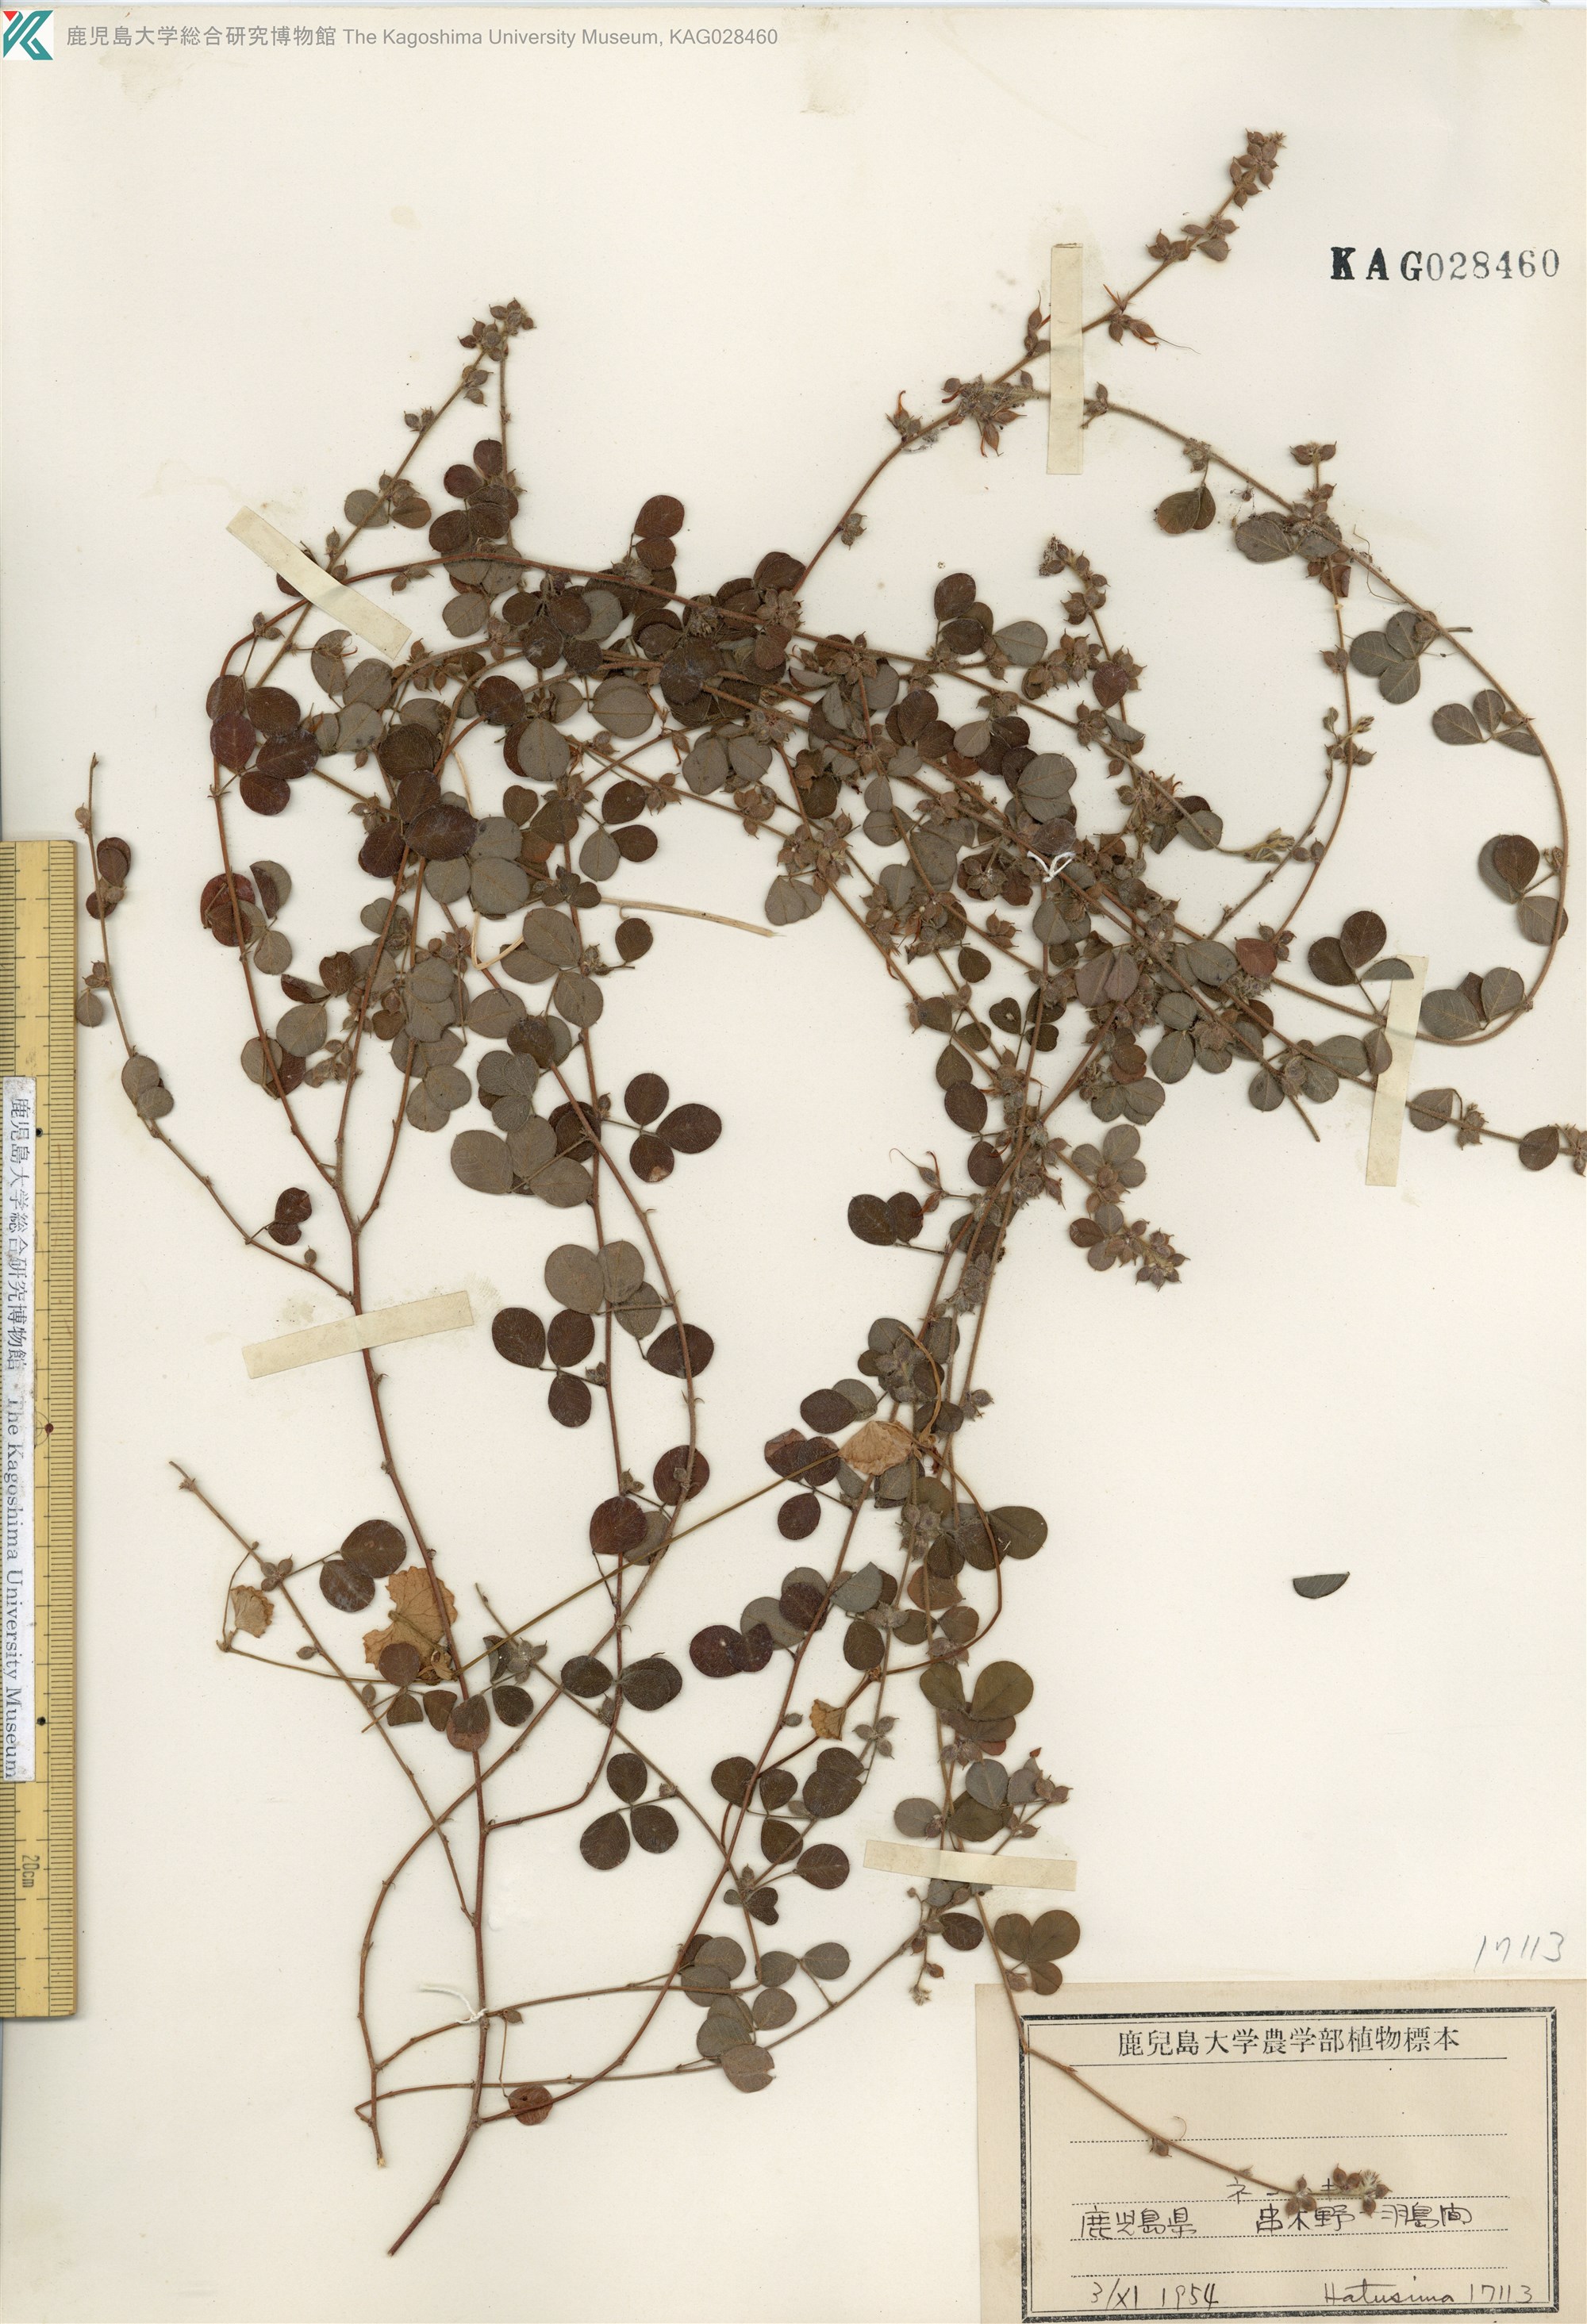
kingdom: Plantae
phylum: Tracheophyta
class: Magnoliopsida
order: Fabales
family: Fabaceae
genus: Lespedeza
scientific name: Lespedeza pilosa
